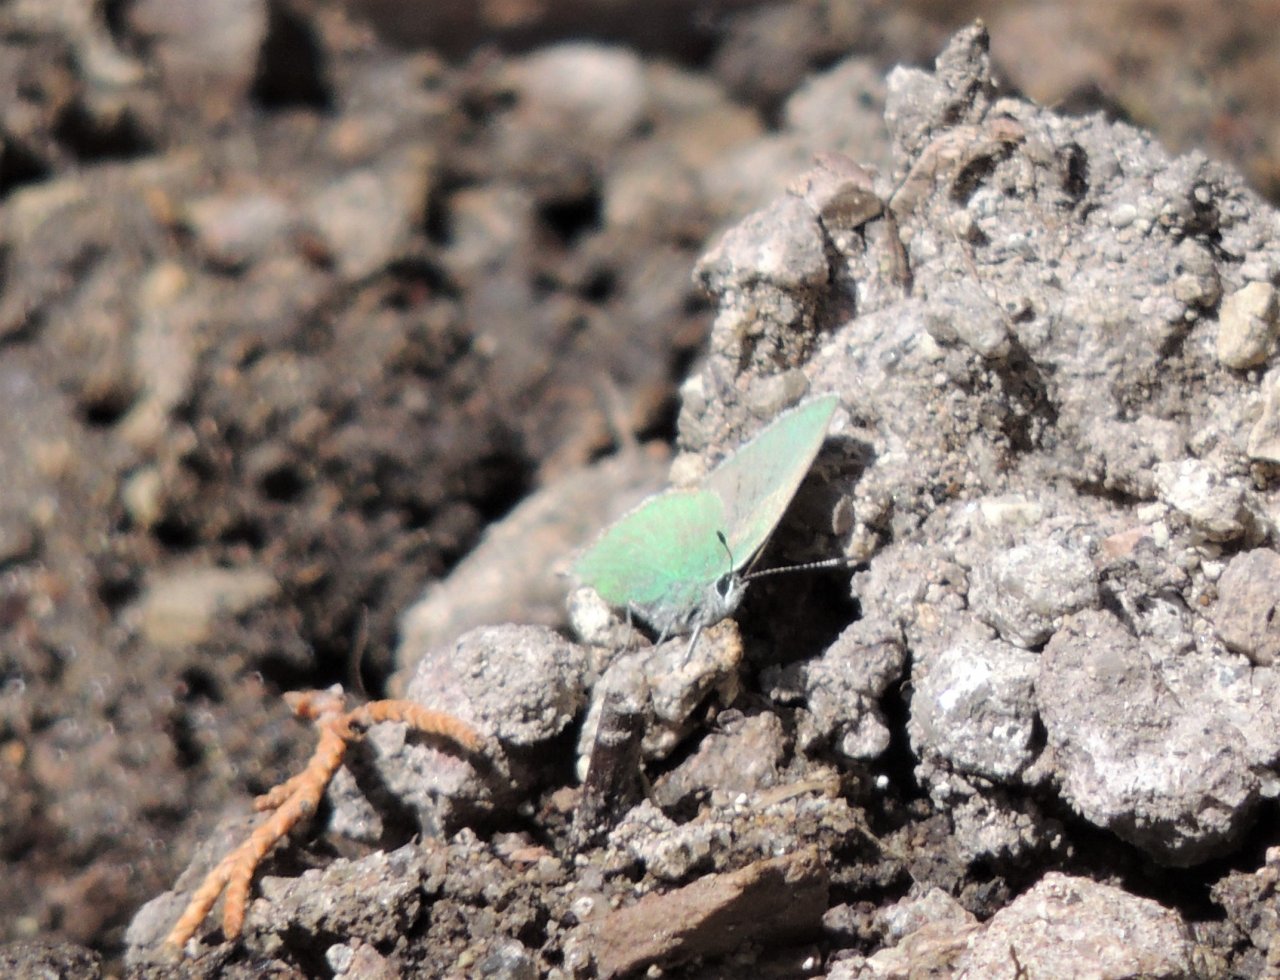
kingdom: Animalia
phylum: Arthropoda
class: Insecta
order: Lepidoptera
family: Lycaenidae
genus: Callophrys
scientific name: Callophrys affinis
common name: Western Green Hairstreak
